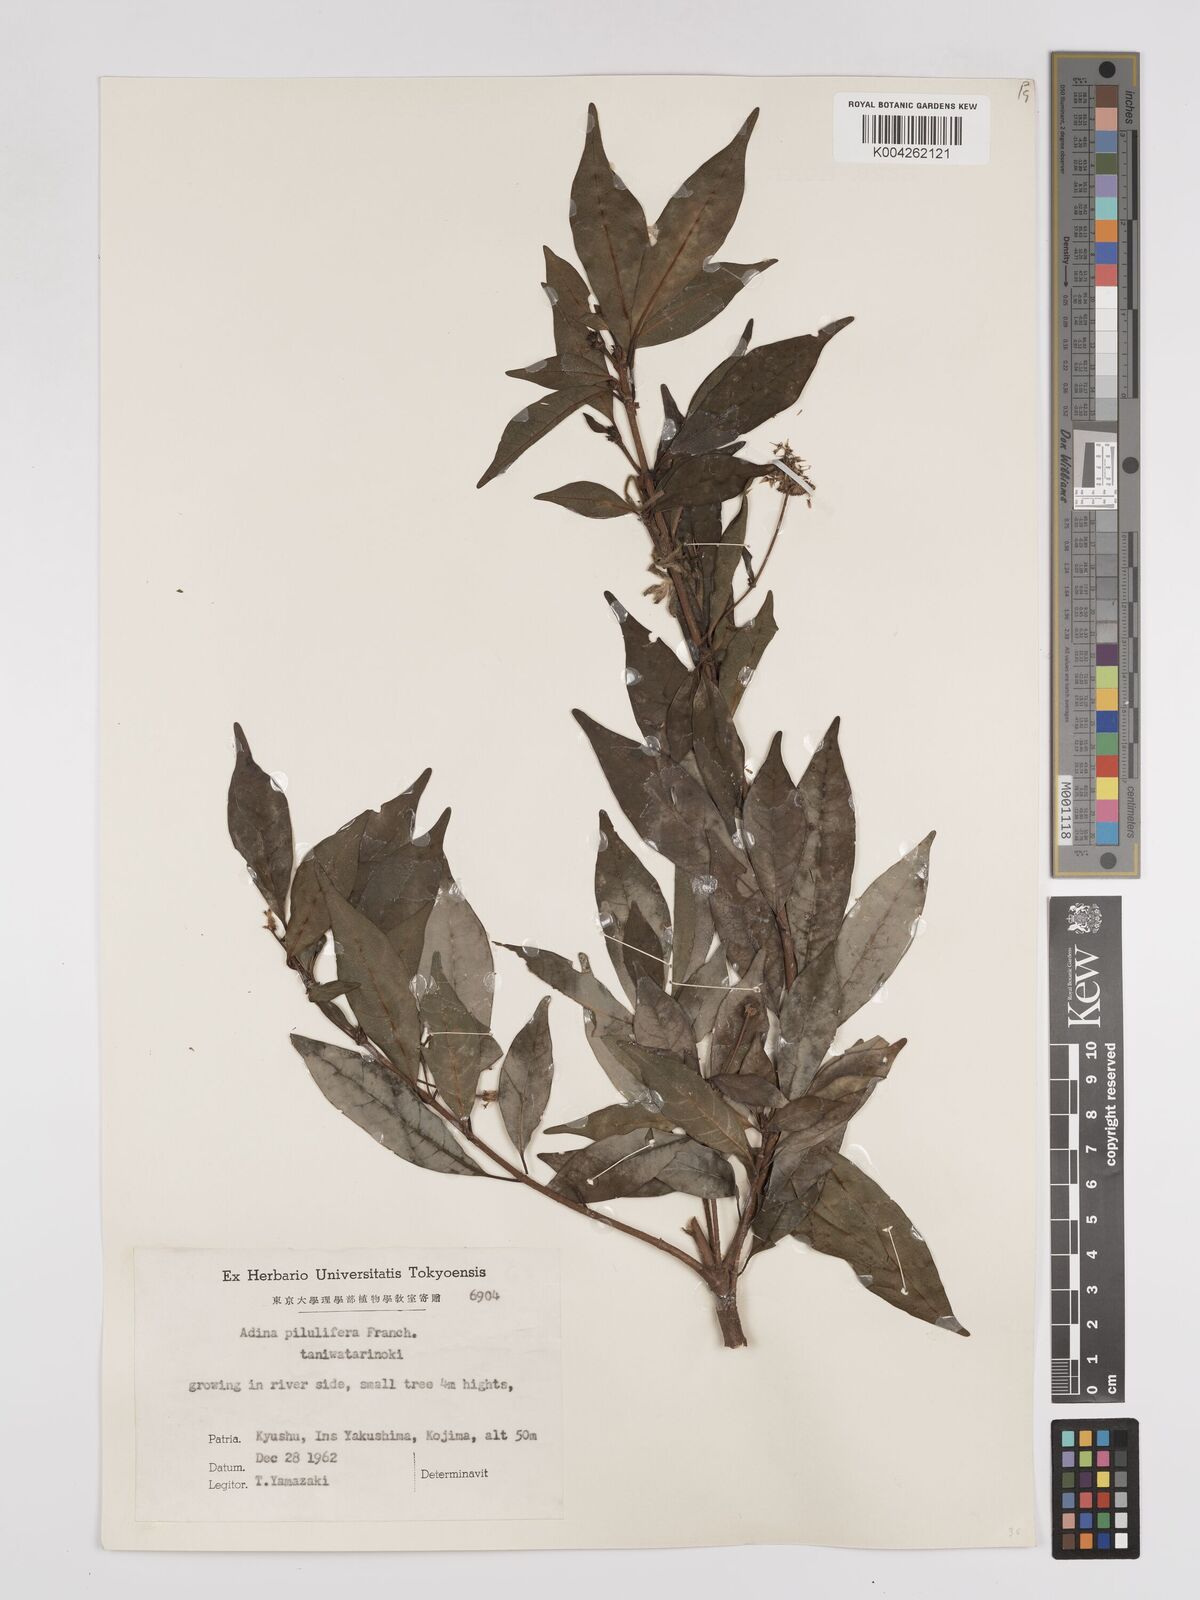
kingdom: Plantae
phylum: Tracheophyta
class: Magnoliopsida
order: Gentianales
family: Rubiaceae
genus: Adina
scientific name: Adina pilulifera
